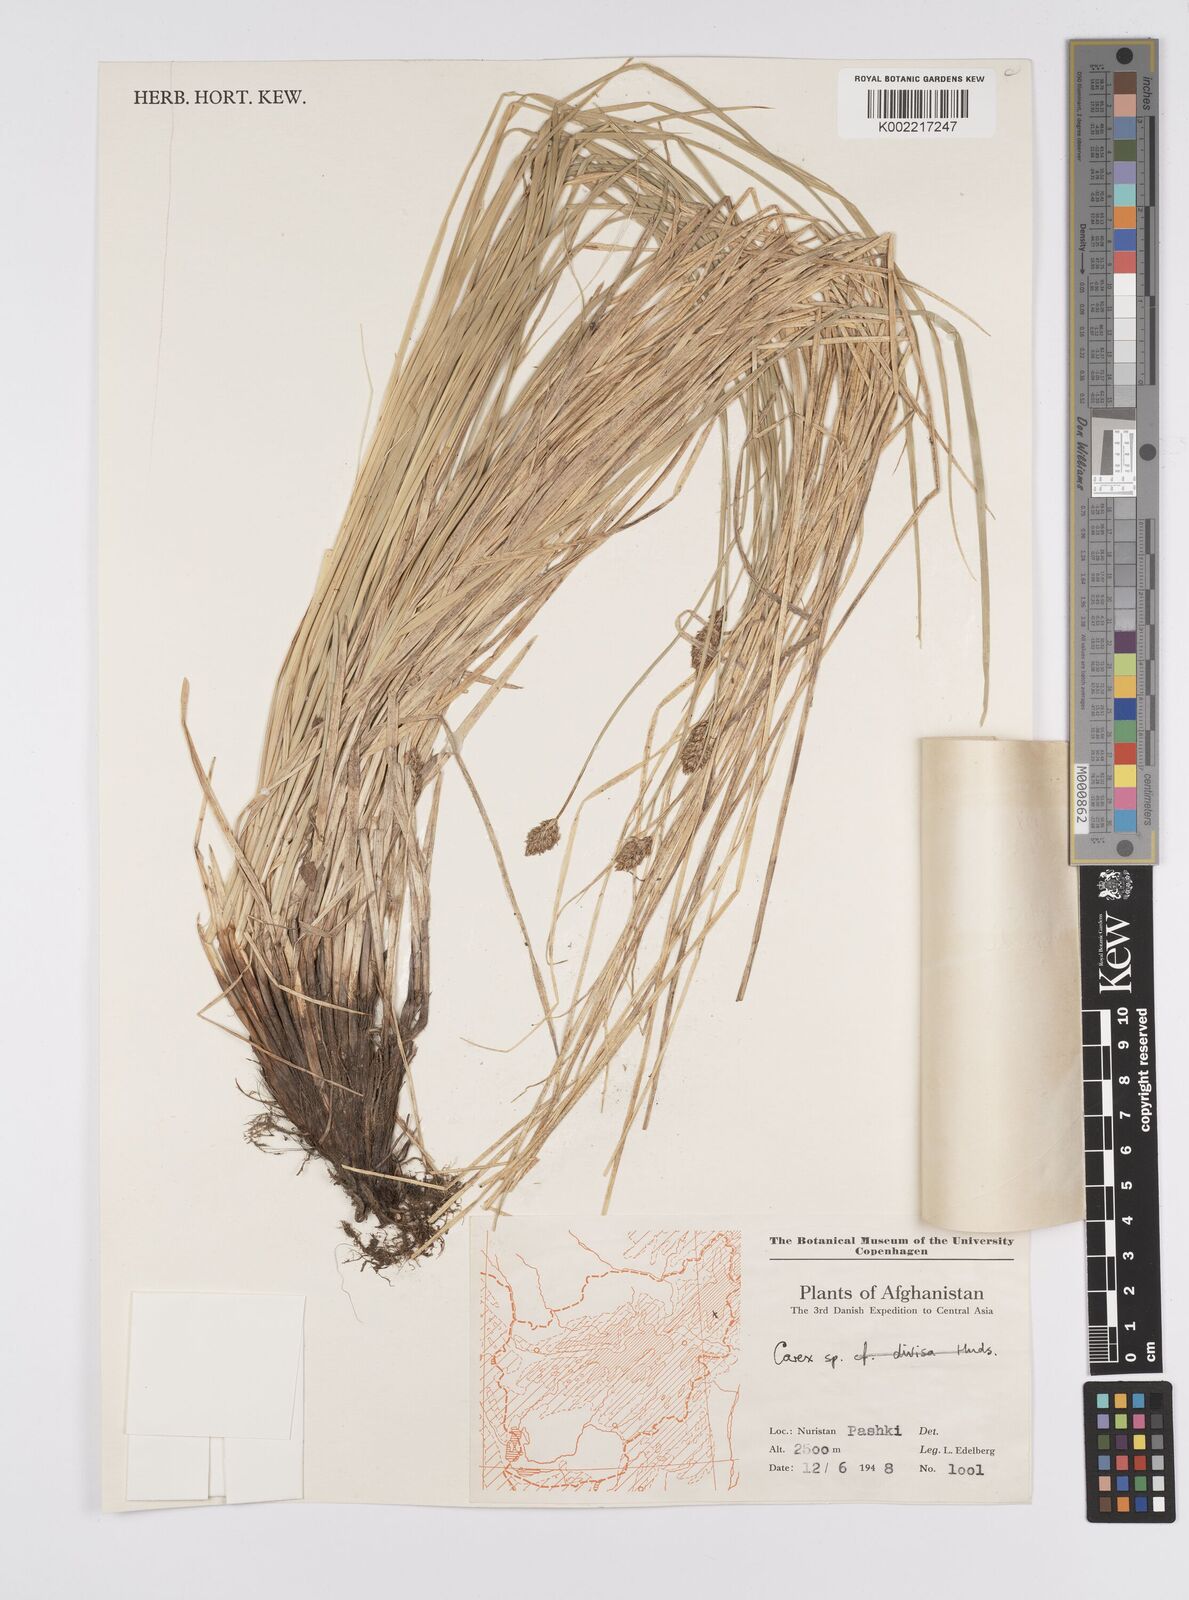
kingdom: Plantae
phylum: Tracheophyta
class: Liliopsida
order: Poales
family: Cyperaceae
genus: Carex
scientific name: Carex
